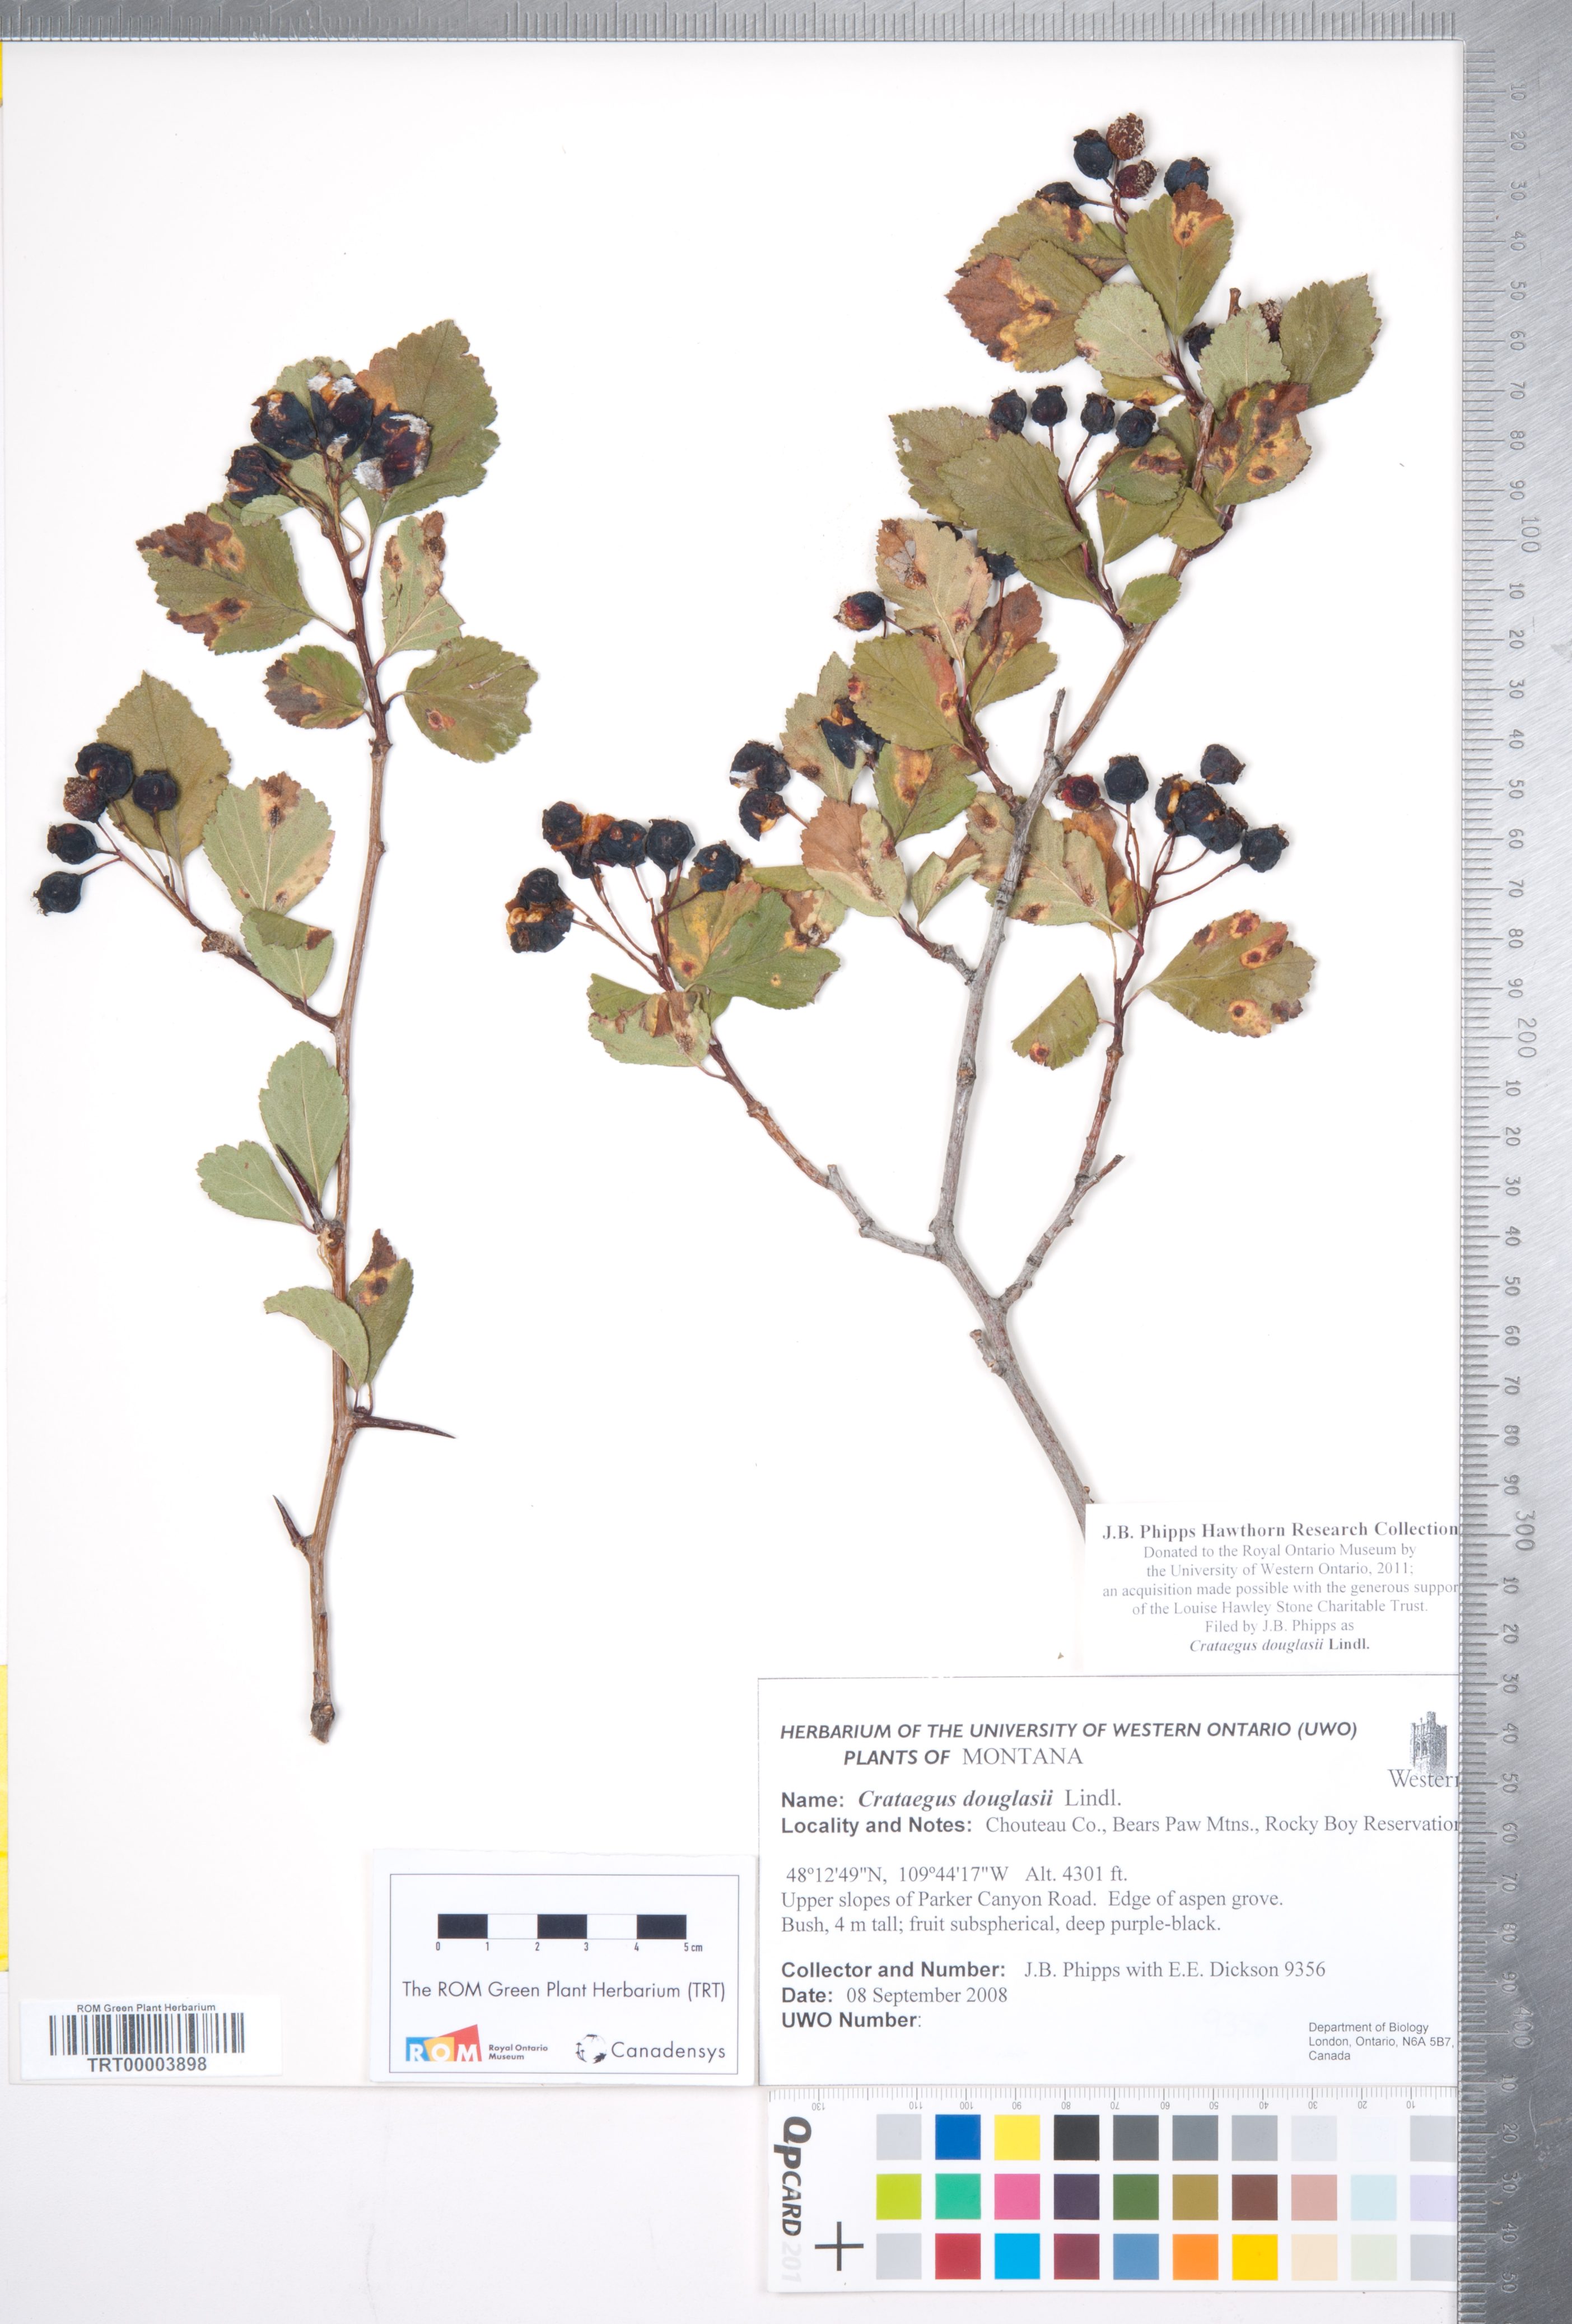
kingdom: Plantae
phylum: Tracheophyta
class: Magnoliopsida
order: Rosales
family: Rosaceae
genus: Crataegus
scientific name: Crataegus douglasii
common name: Black hawthorn
